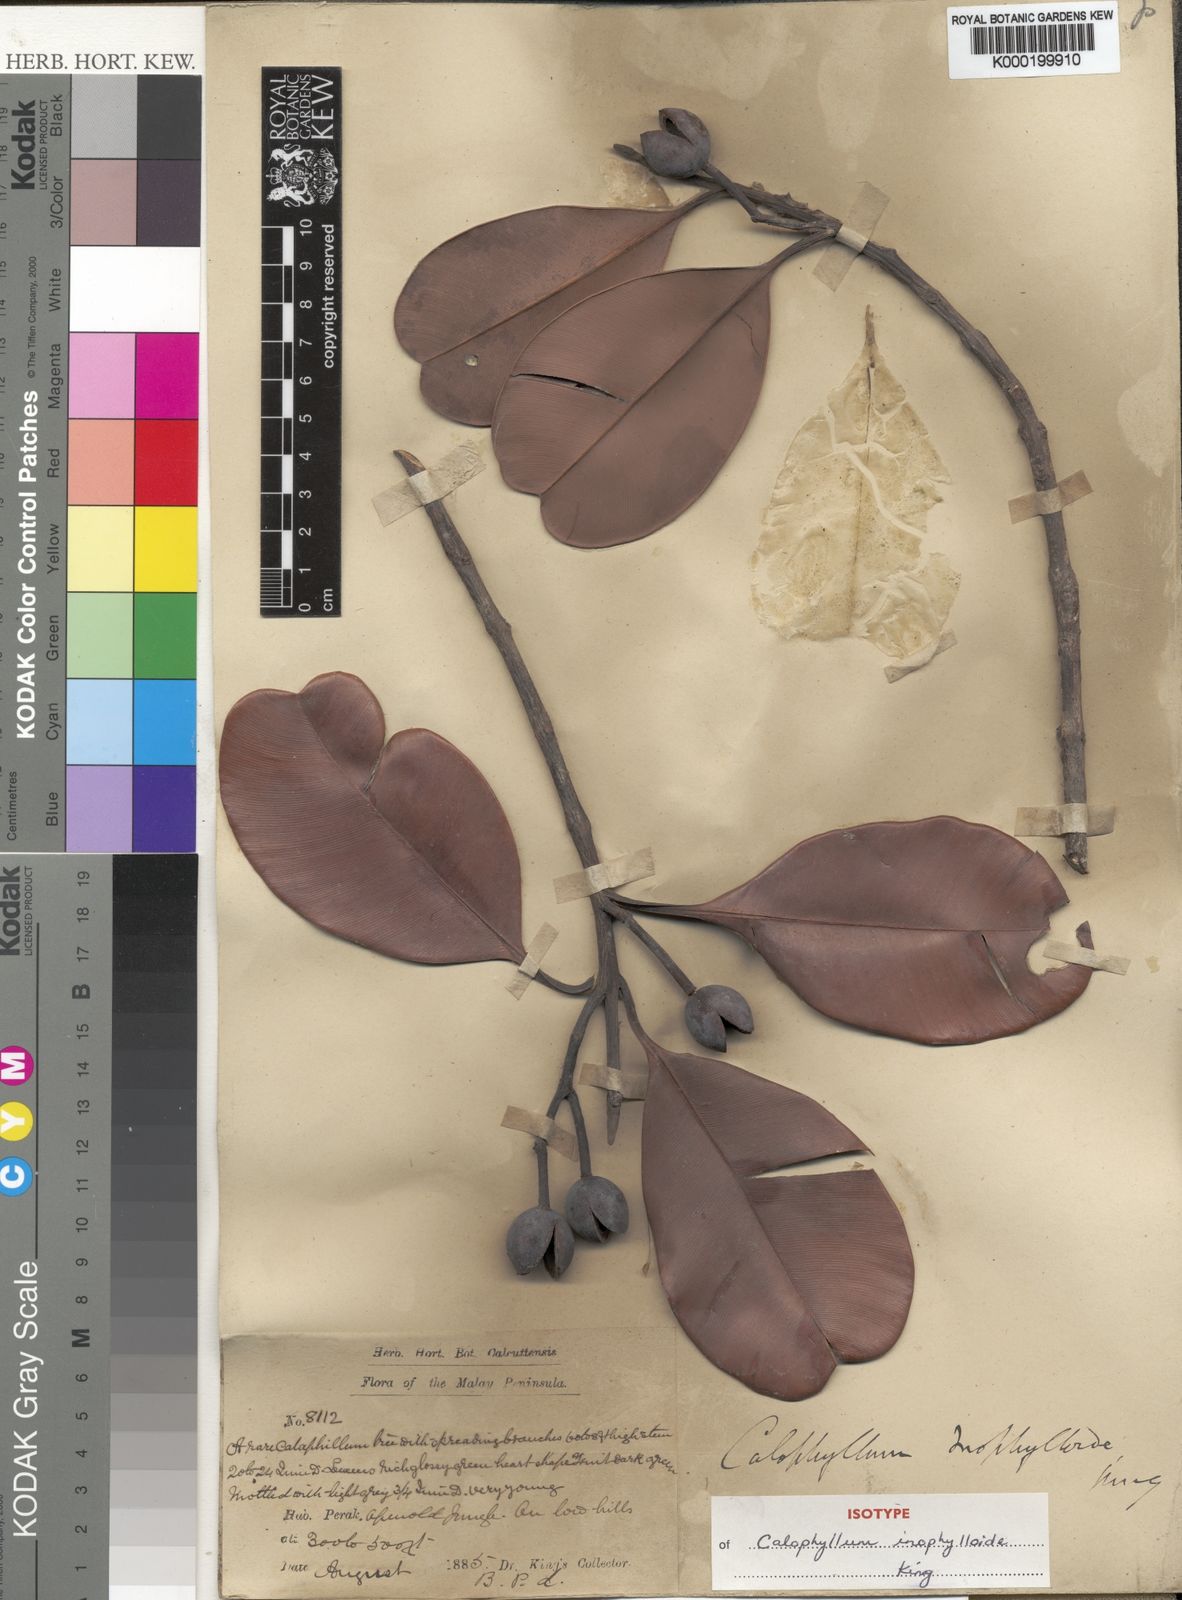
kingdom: Plantae
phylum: Tracheophyta
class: Magnoliopsida
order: Malpighiales
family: Calophyllaceae
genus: Calophyllum
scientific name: Calophyllum teysmannii
